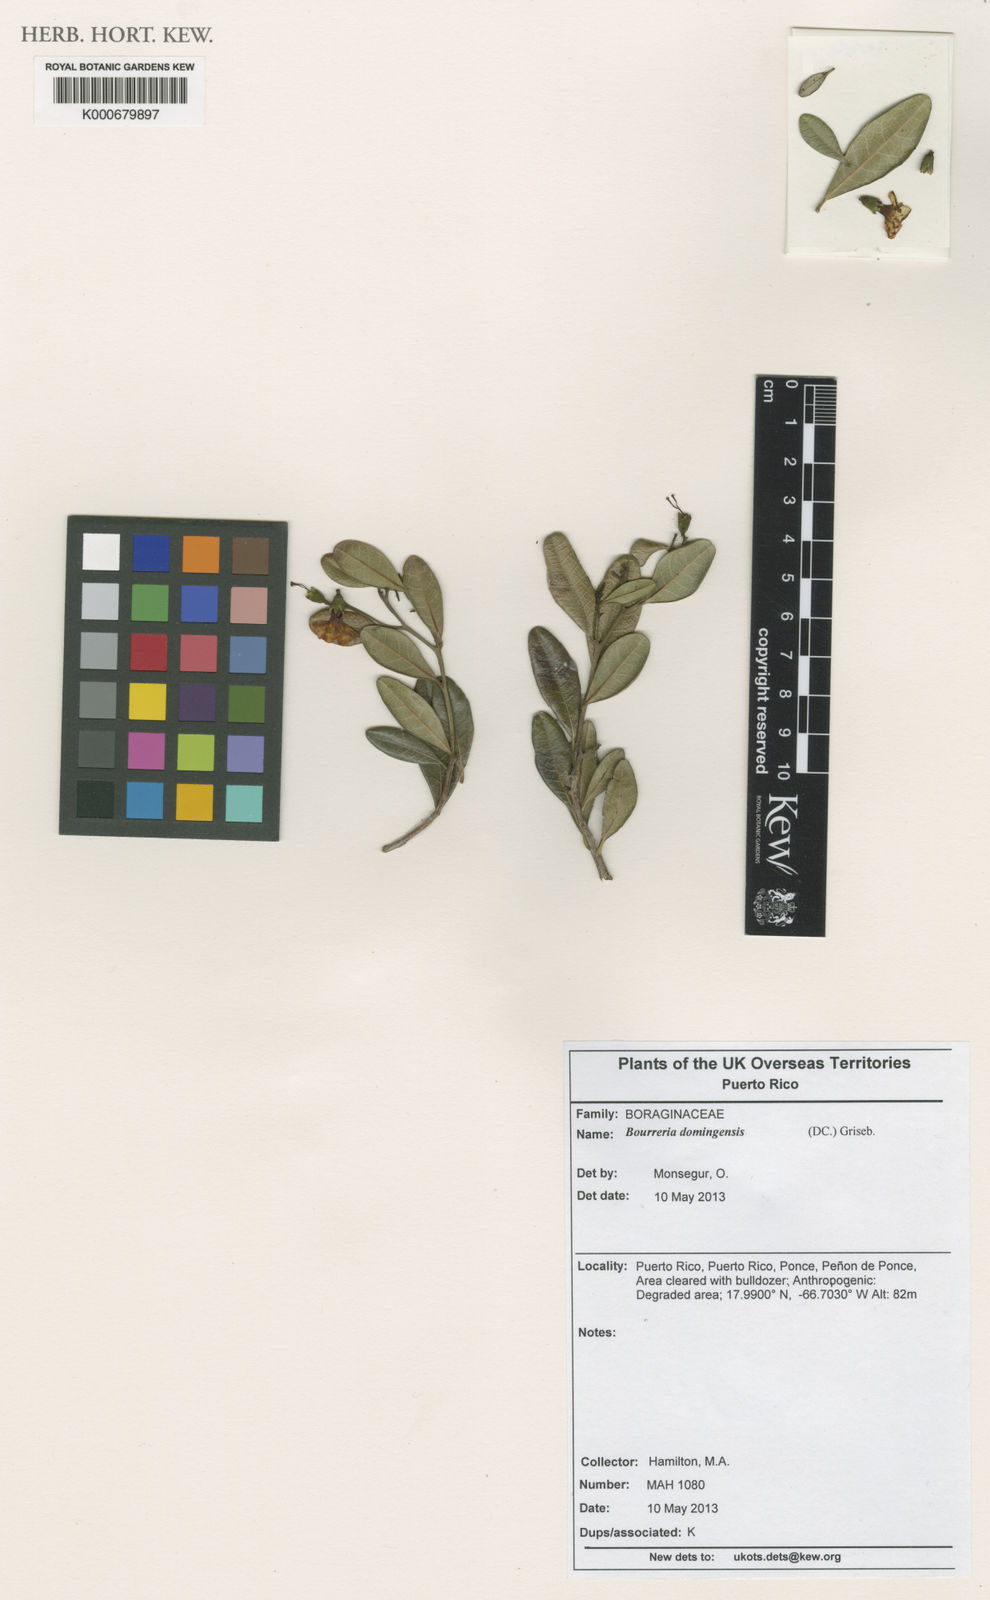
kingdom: Plantae
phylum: Tracheophyta
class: Magnoliopsida
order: Boraginales
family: Ehretiaceae
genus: Bourreria
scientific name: Bourreria virgata
